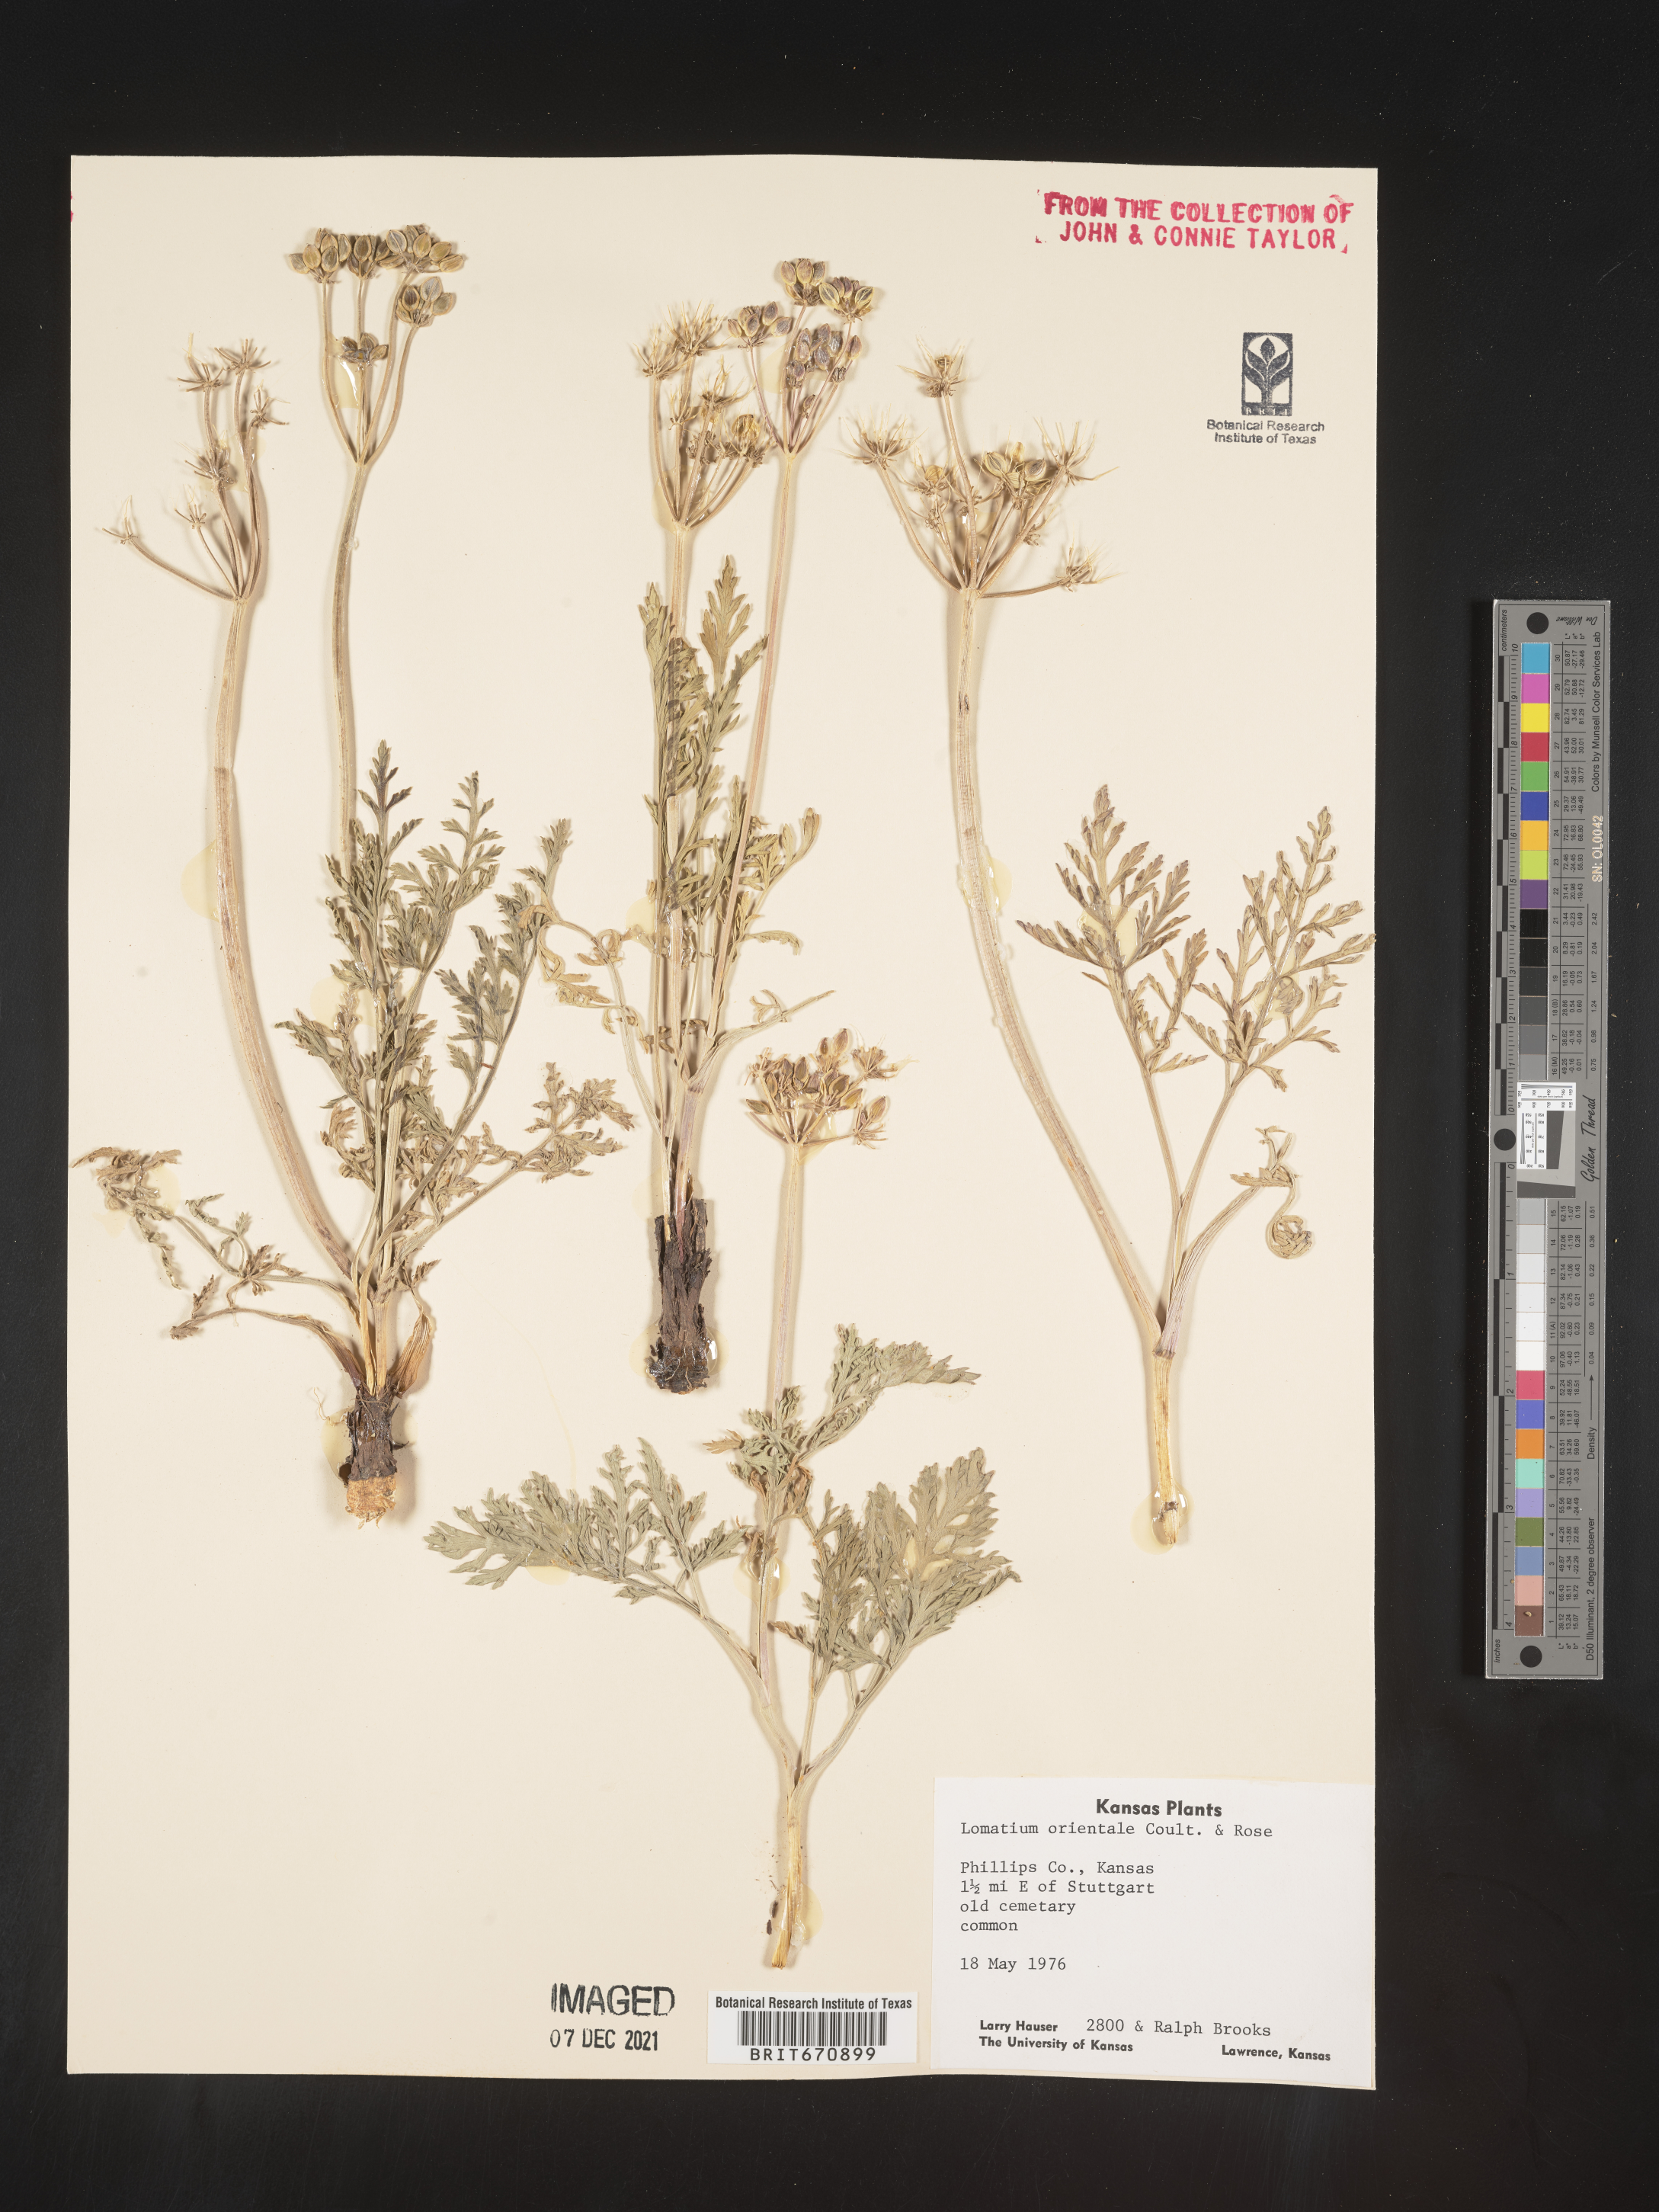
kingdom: Plantae
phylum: Tracheophyta
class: Magnoliopsida
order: Apiales
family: Apiaceae
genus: Lomatium
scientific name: Lomatium
